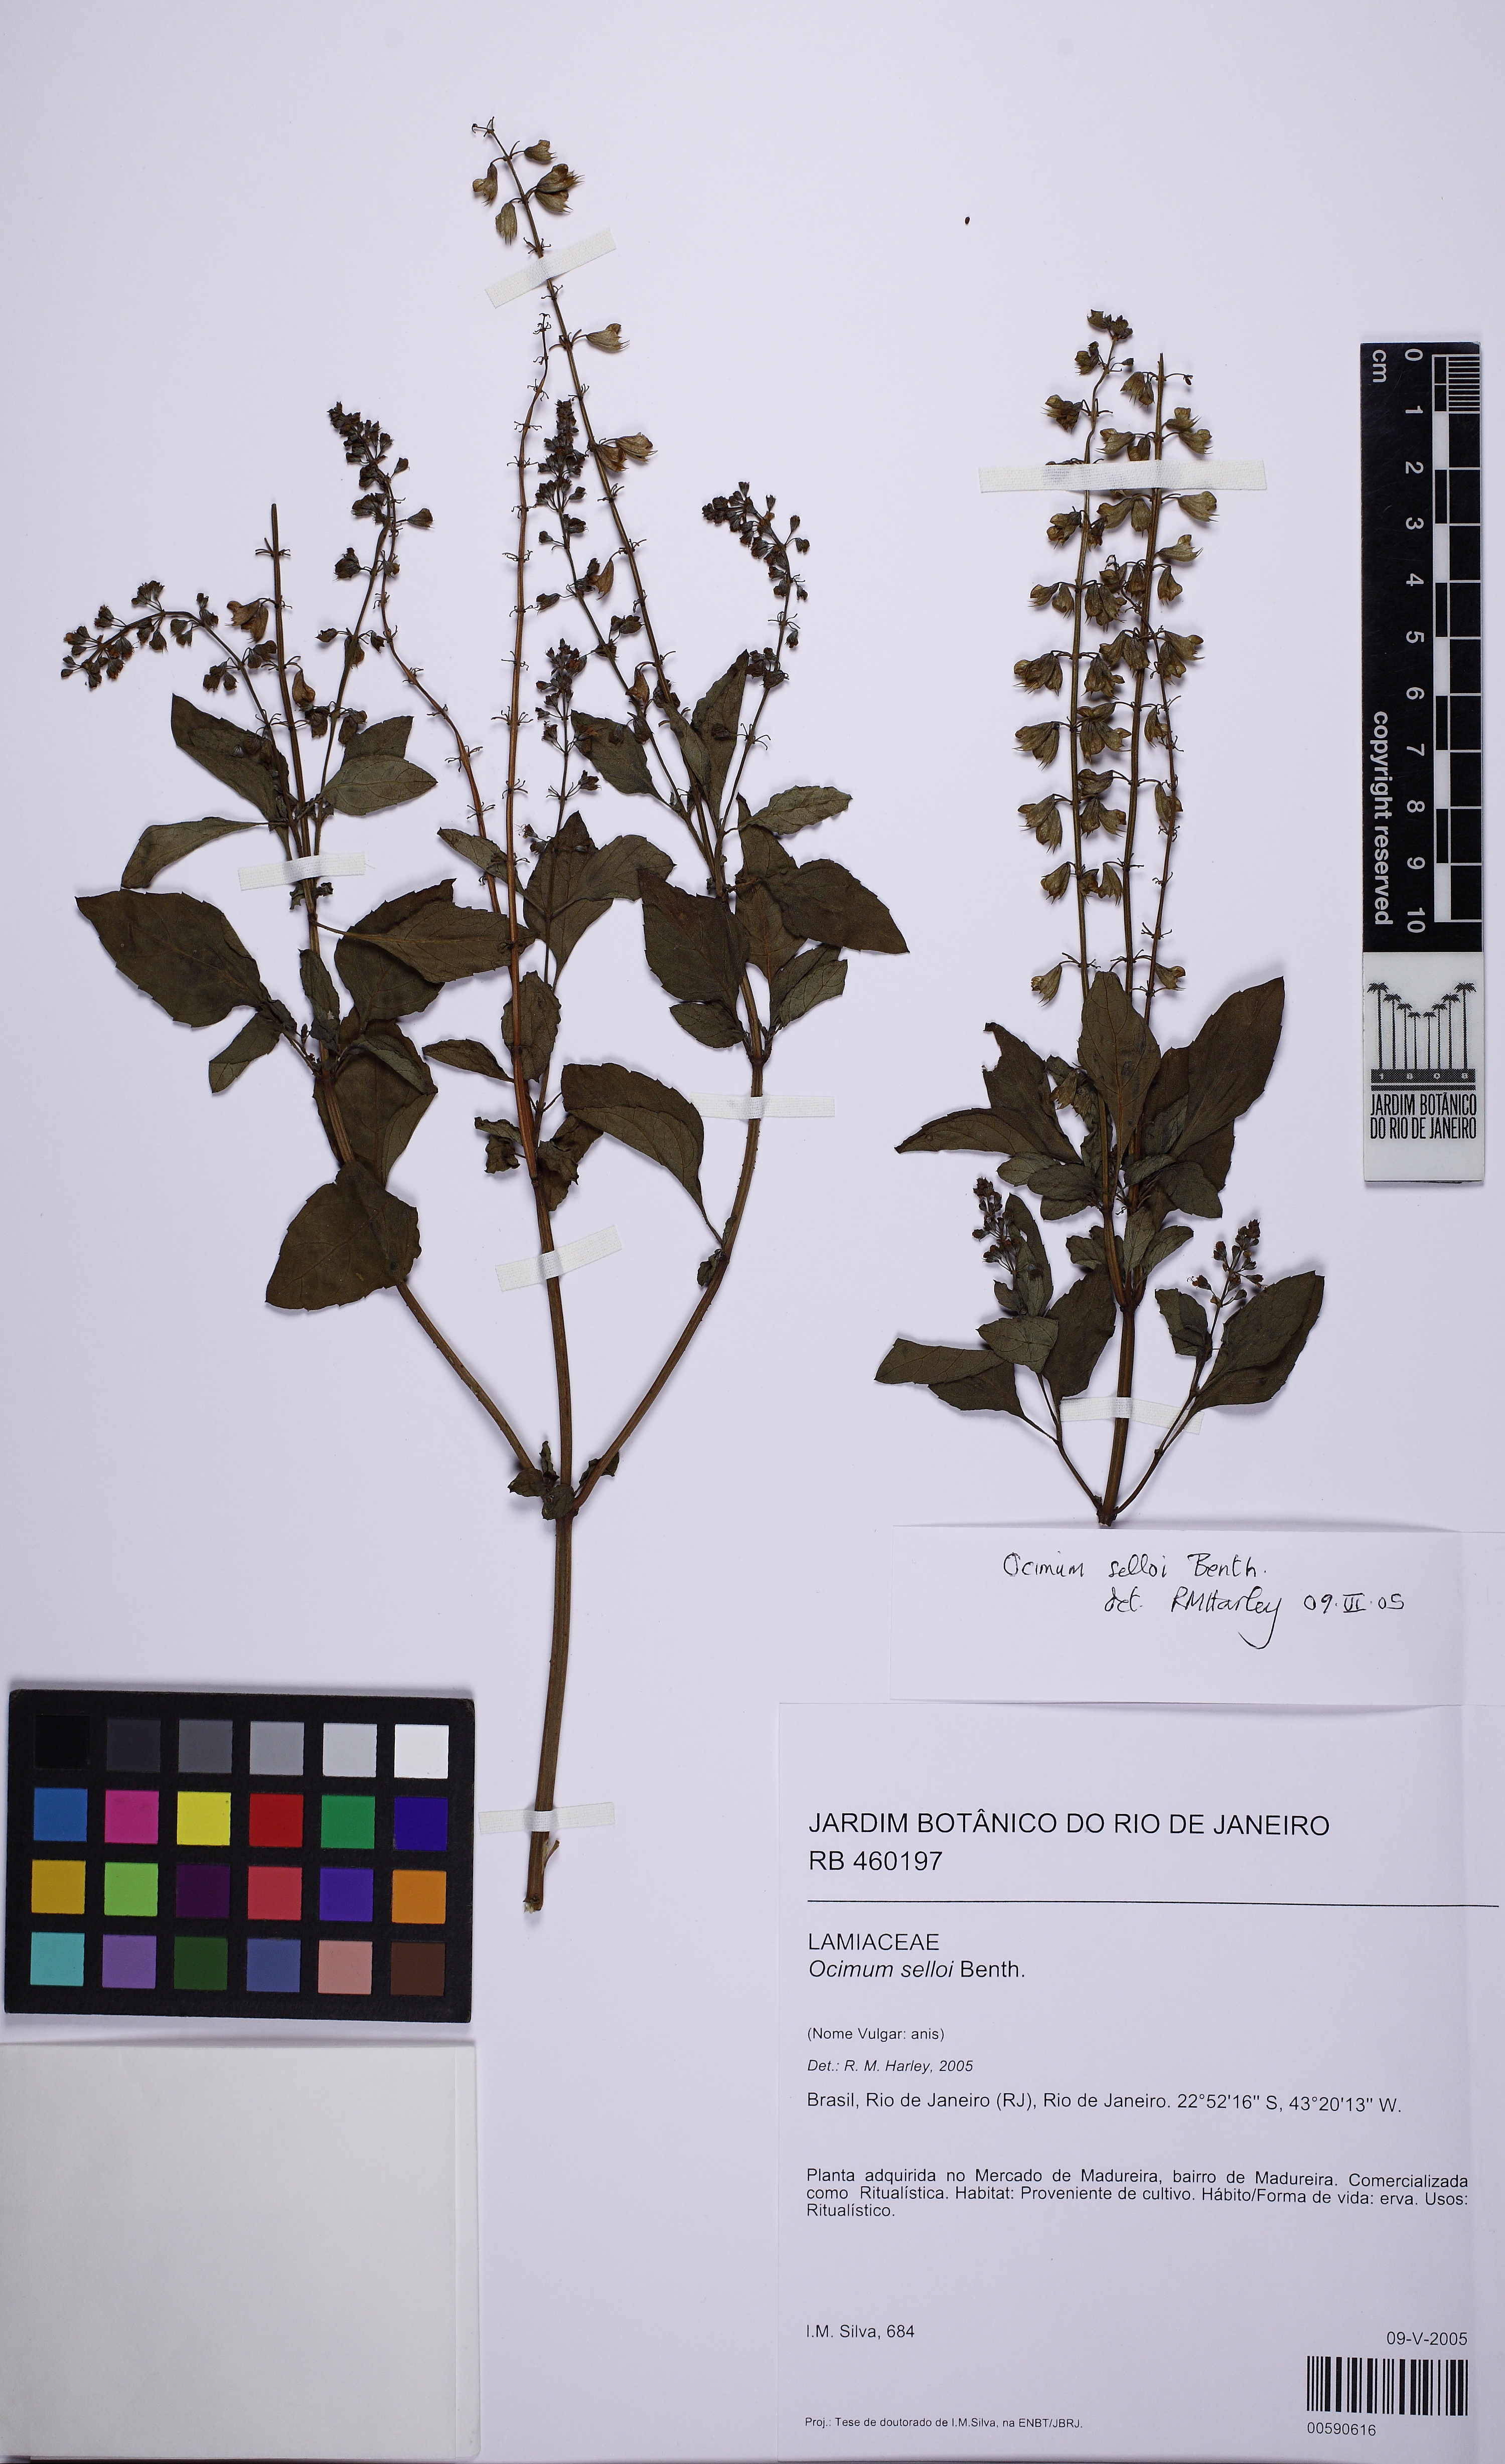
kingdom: Plantae
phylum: Tracheophyta
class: Magnoliopsida
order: Lamiales
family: Lamiaceae
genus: Ocimum
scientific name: Ocimum carnosum
